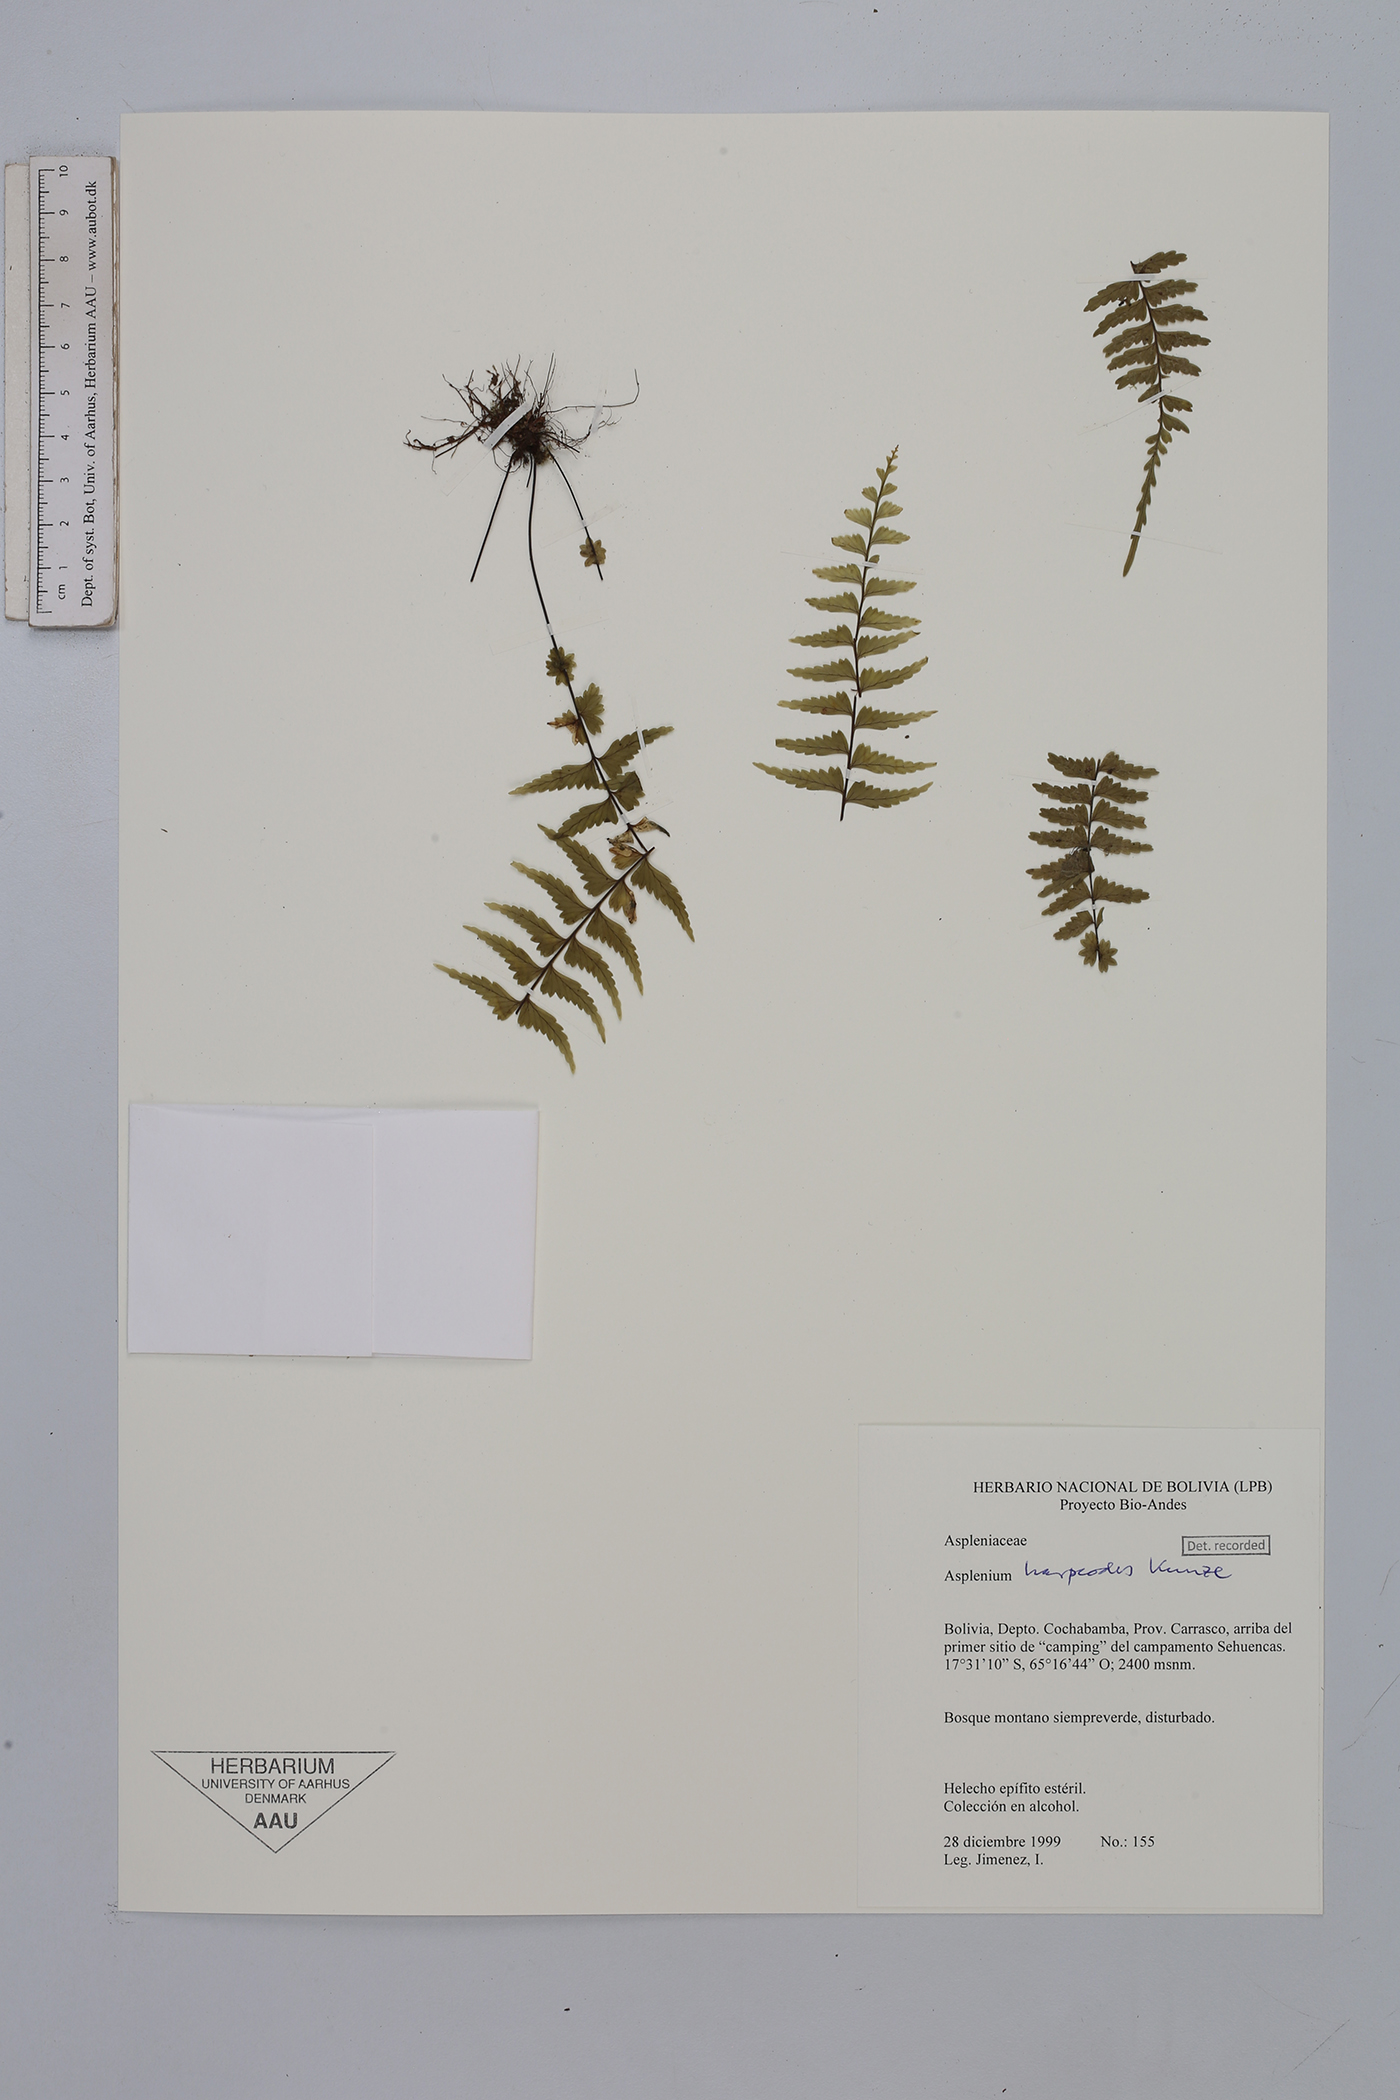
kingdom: Plantae
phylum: Tracheophyta
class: Polypodiopsida
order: Polypodiales
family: Aspleniaceae
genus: Asplenium
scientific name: Asplenium harpeodes
